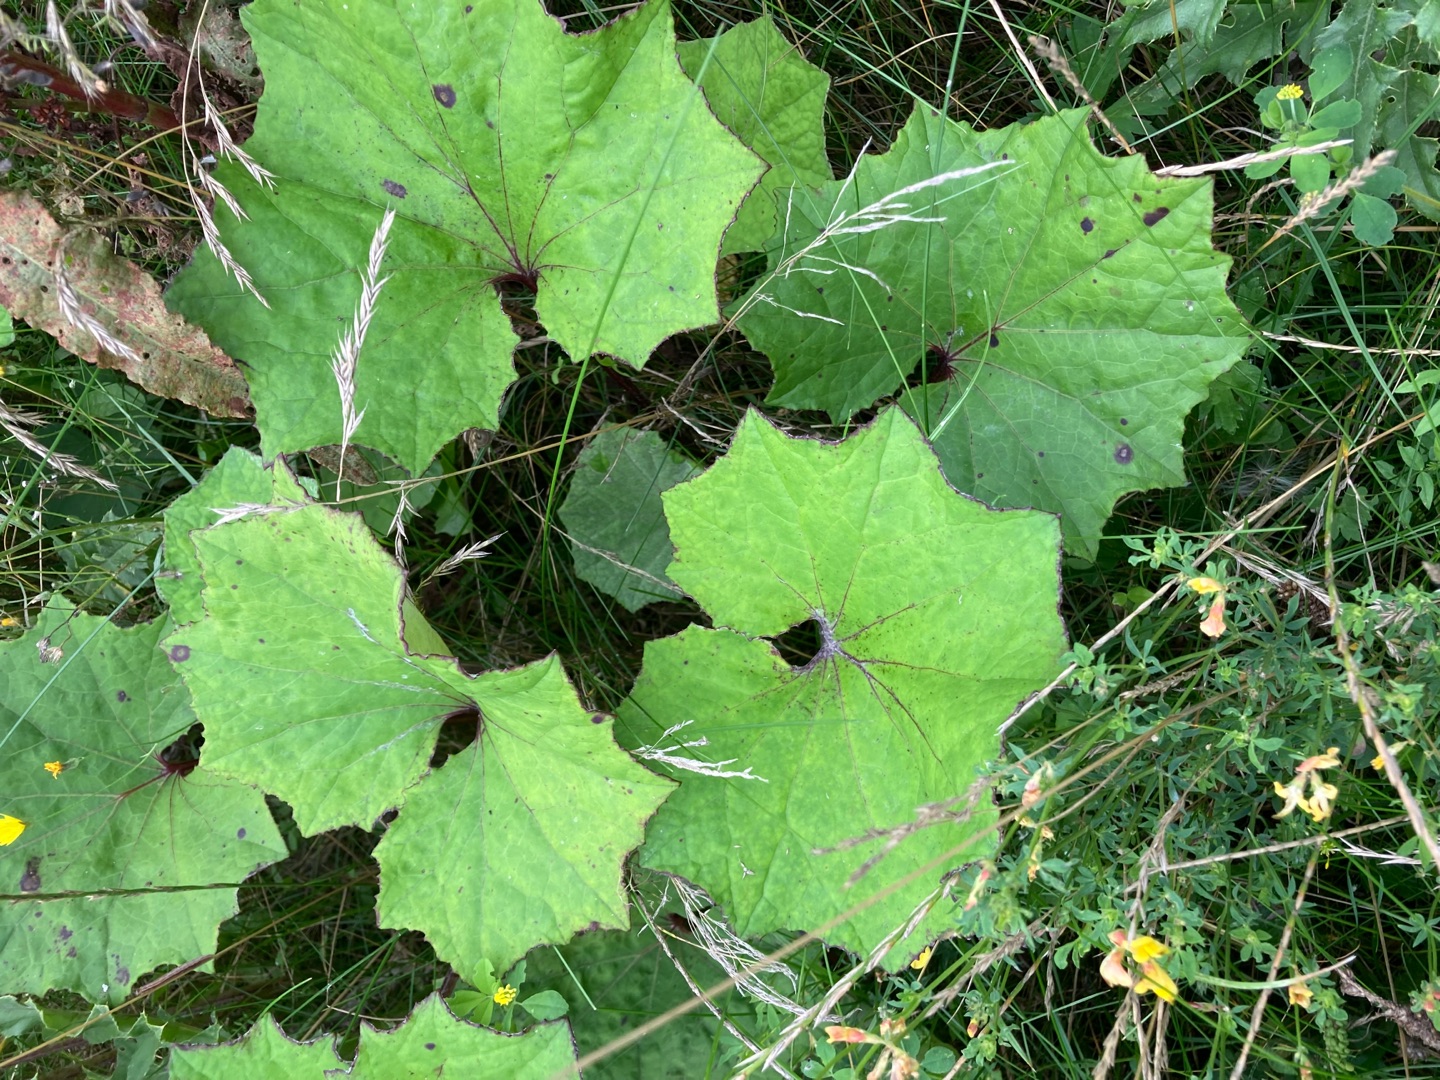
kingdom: Plantae
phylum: Tracheophyta
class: Magnoliopsida
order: Asterales
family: Asteraceae
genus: Tussilago
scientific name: Tussilago farfara
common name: Følfod
